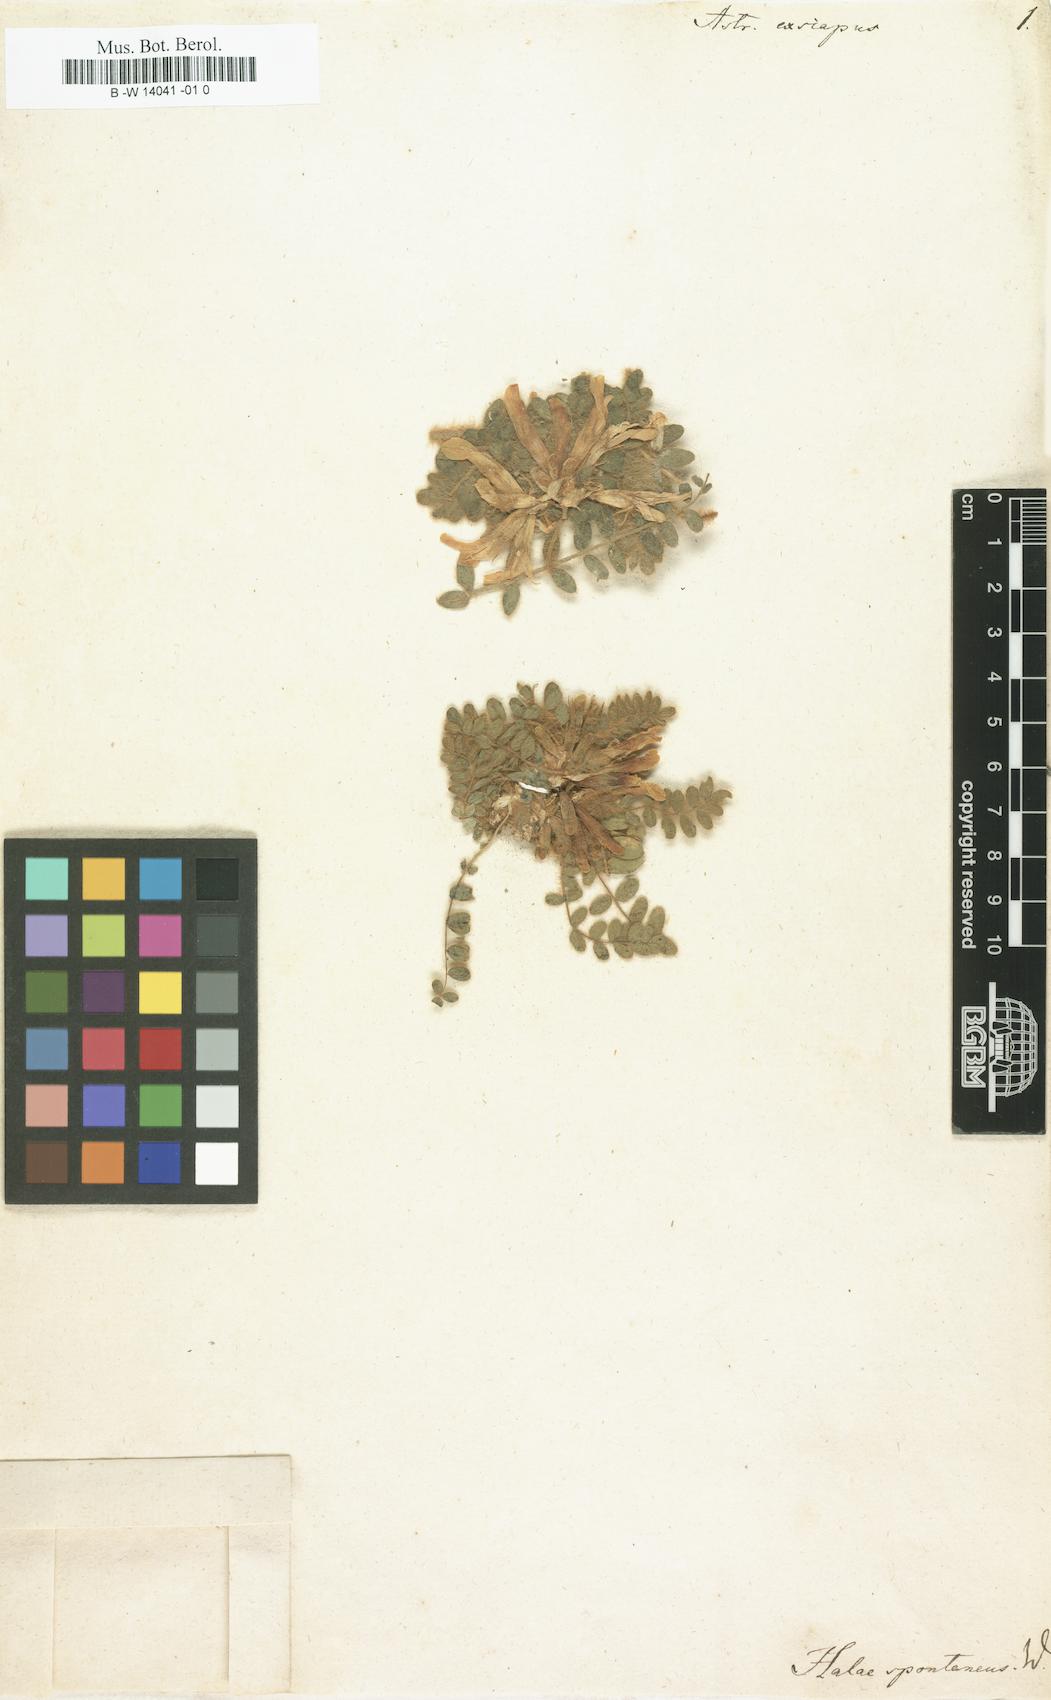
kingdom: Plantae
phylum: Tracheophyta
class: Magnoliopsida
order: Fabales
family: Fabaceae
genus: Astragalus
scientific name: Astragalus exscapus
